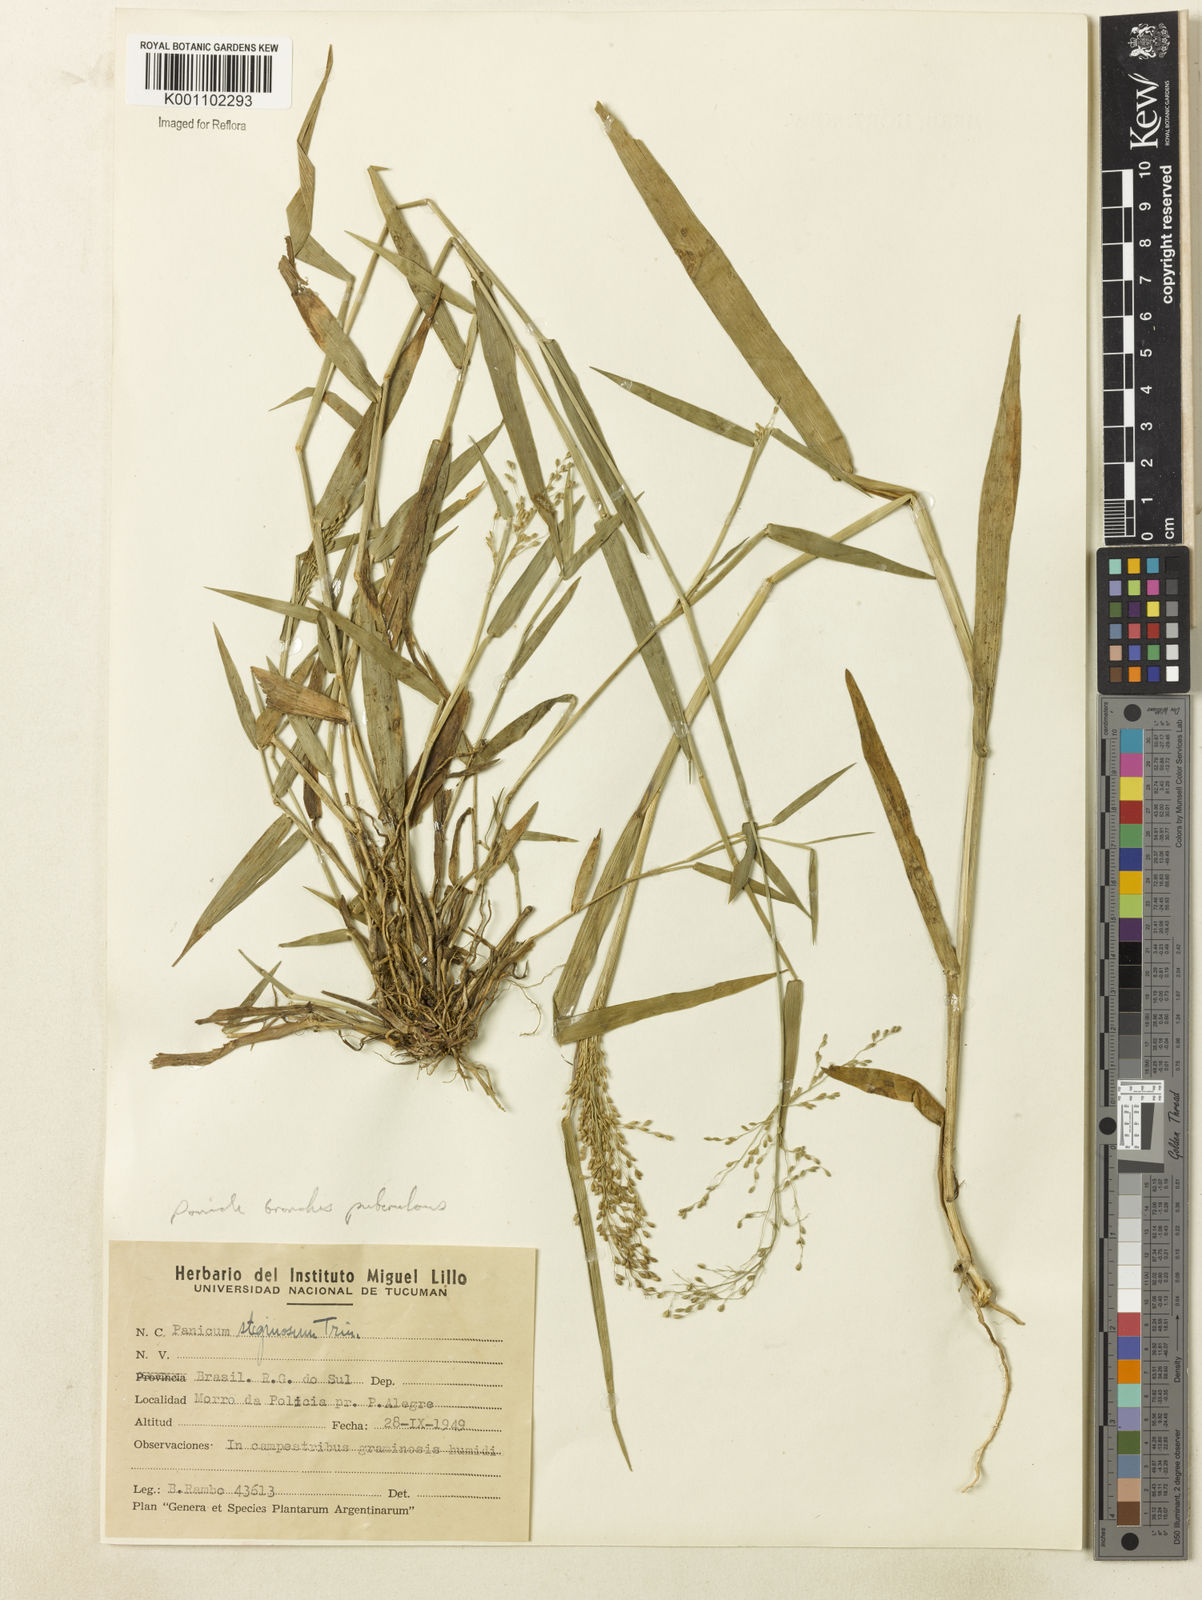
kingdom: Plantae
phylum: Tracheophyta
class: Liliopsida
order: Poales
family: Poaceae
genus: Dichanthelium
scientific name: Dichanthelium stigmosum
